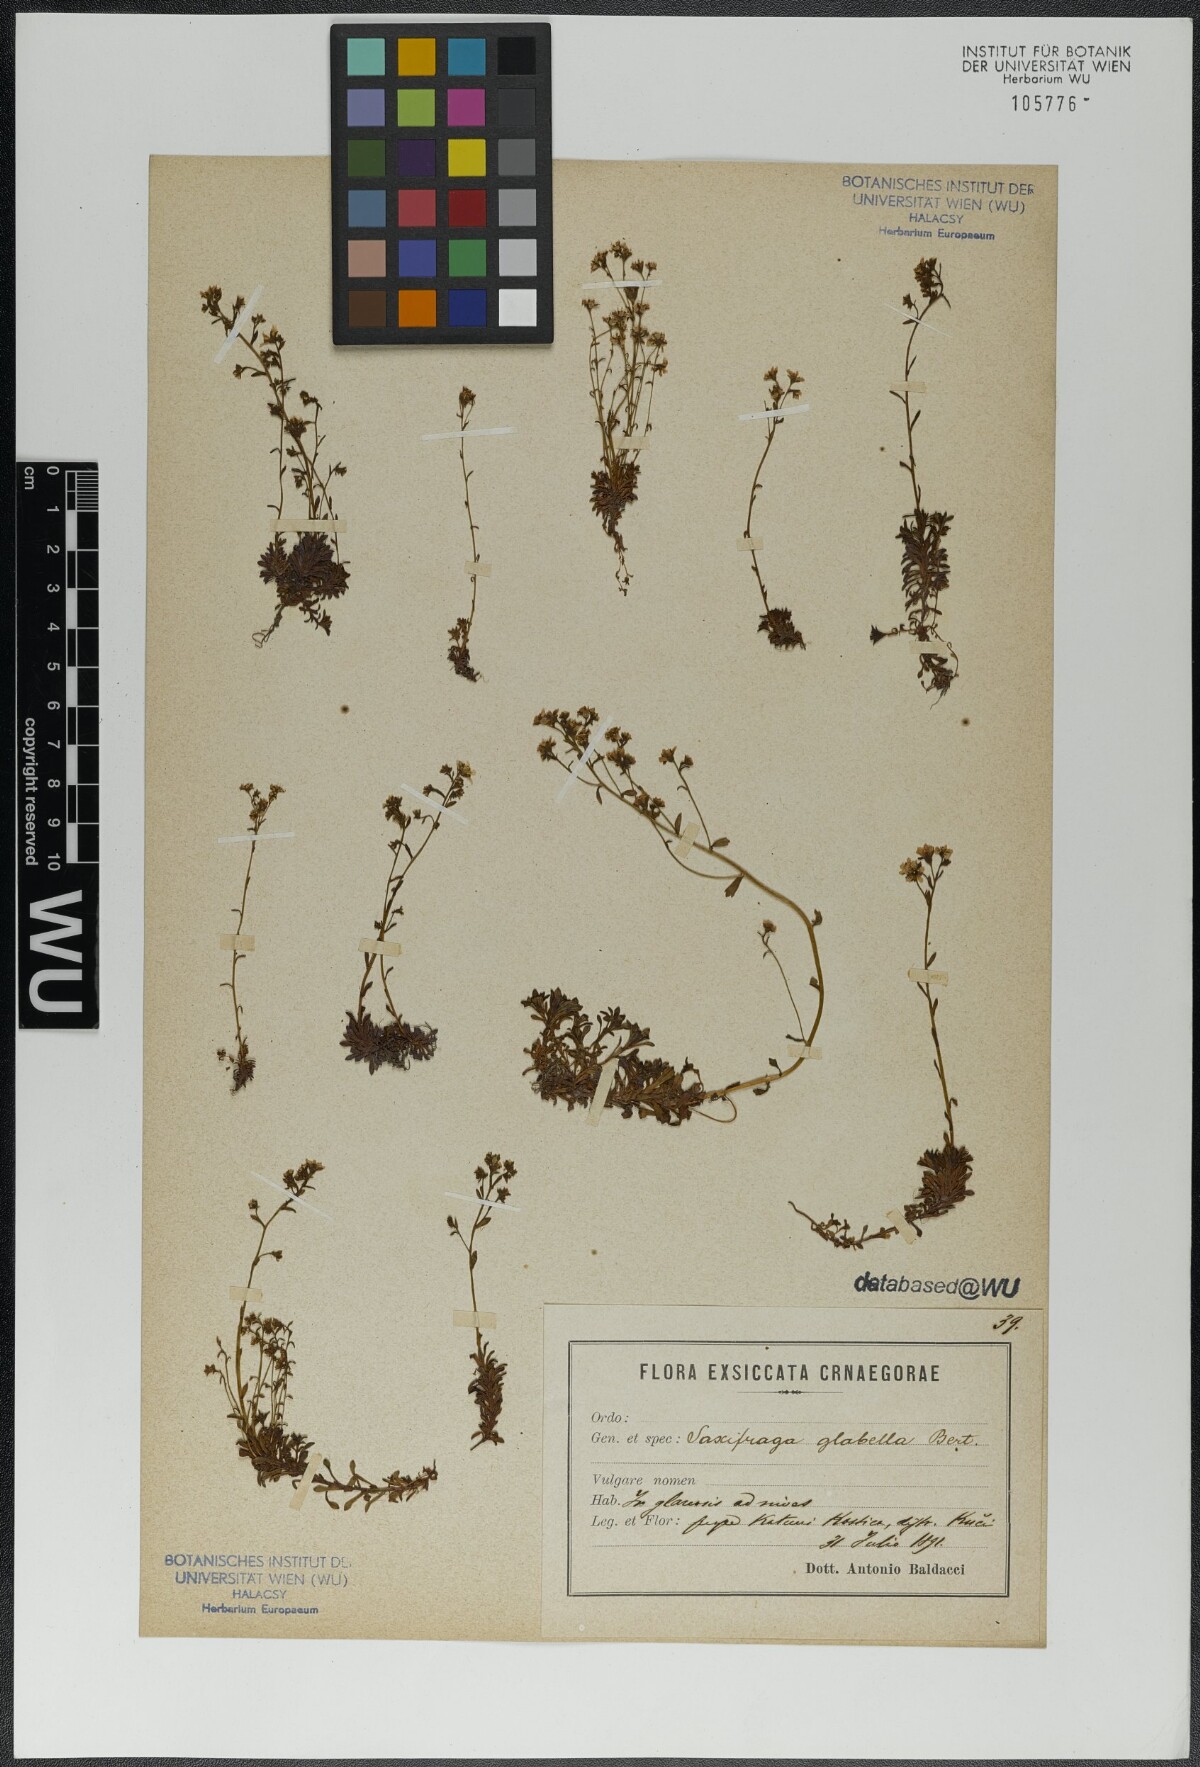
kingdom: Plantae
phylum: Tracheophyta
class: Magnoliopsida
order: Saxifragales
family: Saxifragaceae
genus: Saxifraga
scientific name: Saxifraga glabella
